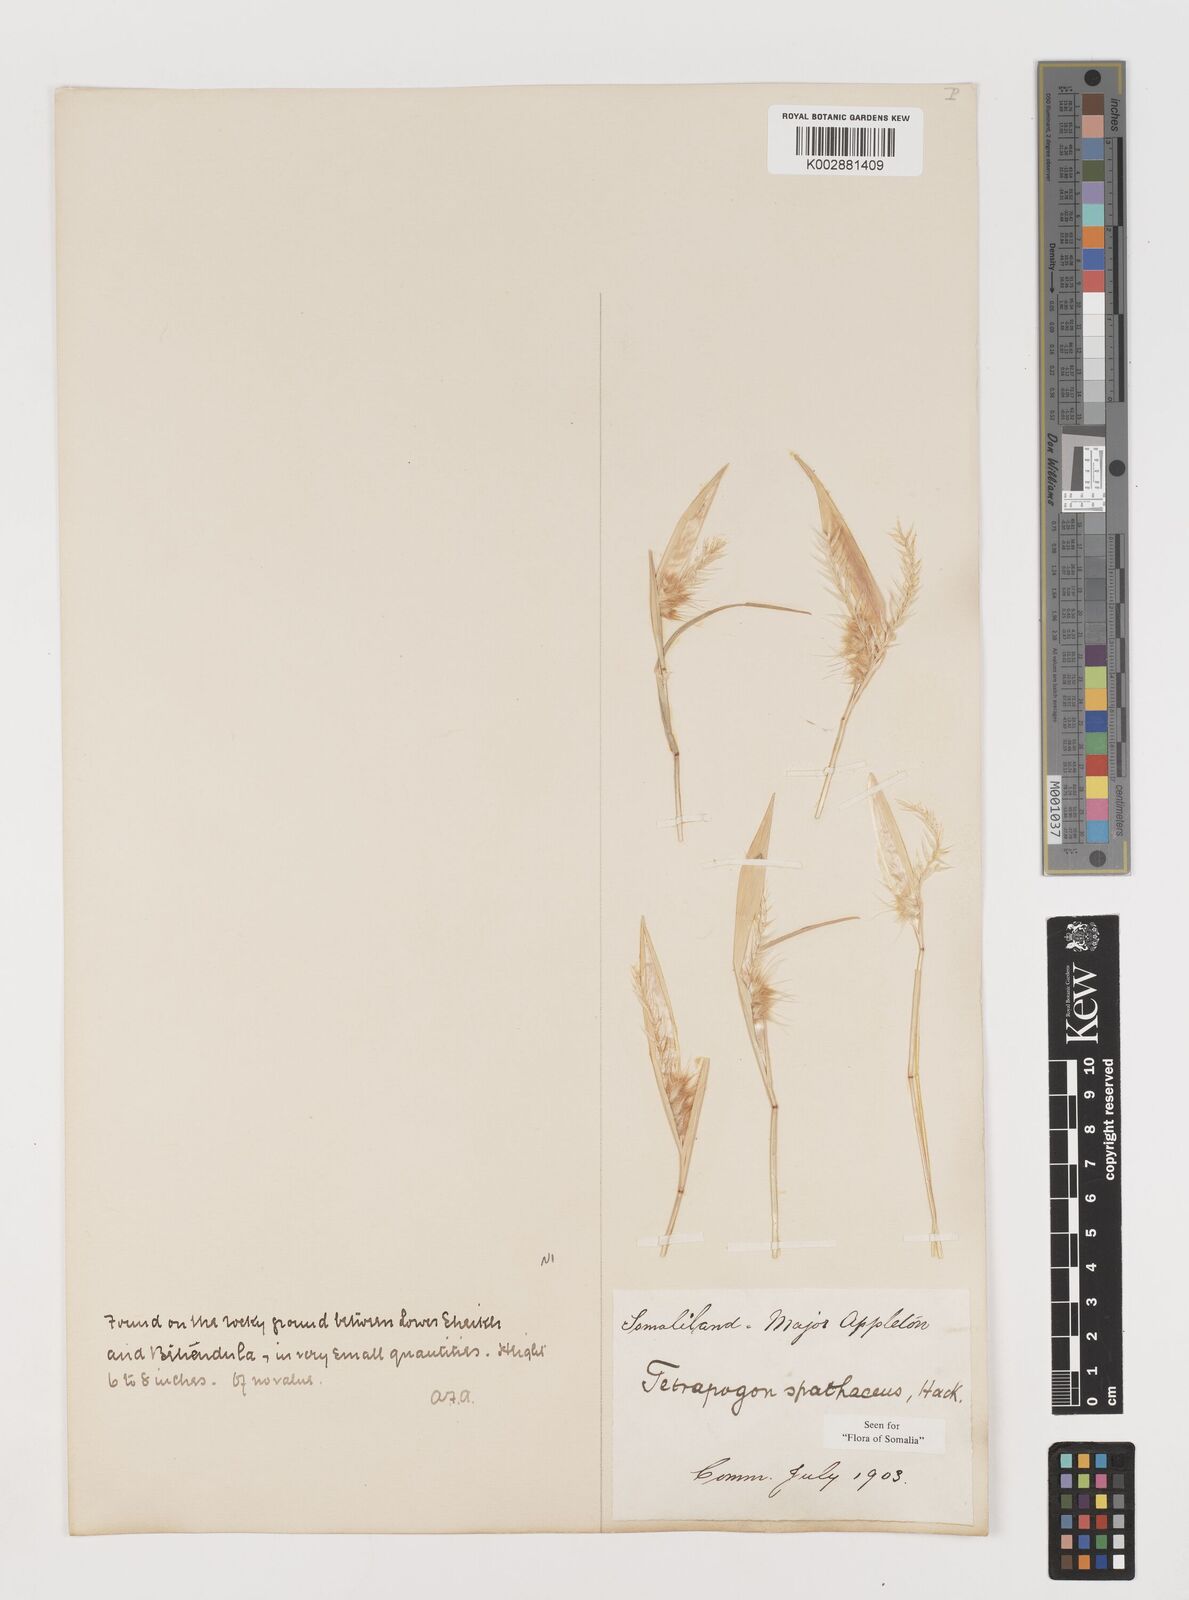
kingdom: Plantae
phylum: Tracheophyta
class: Liliopsida
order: Poales
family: Poaceae
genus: Tetrapogon
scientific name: Tetrapogon cenchriformis
